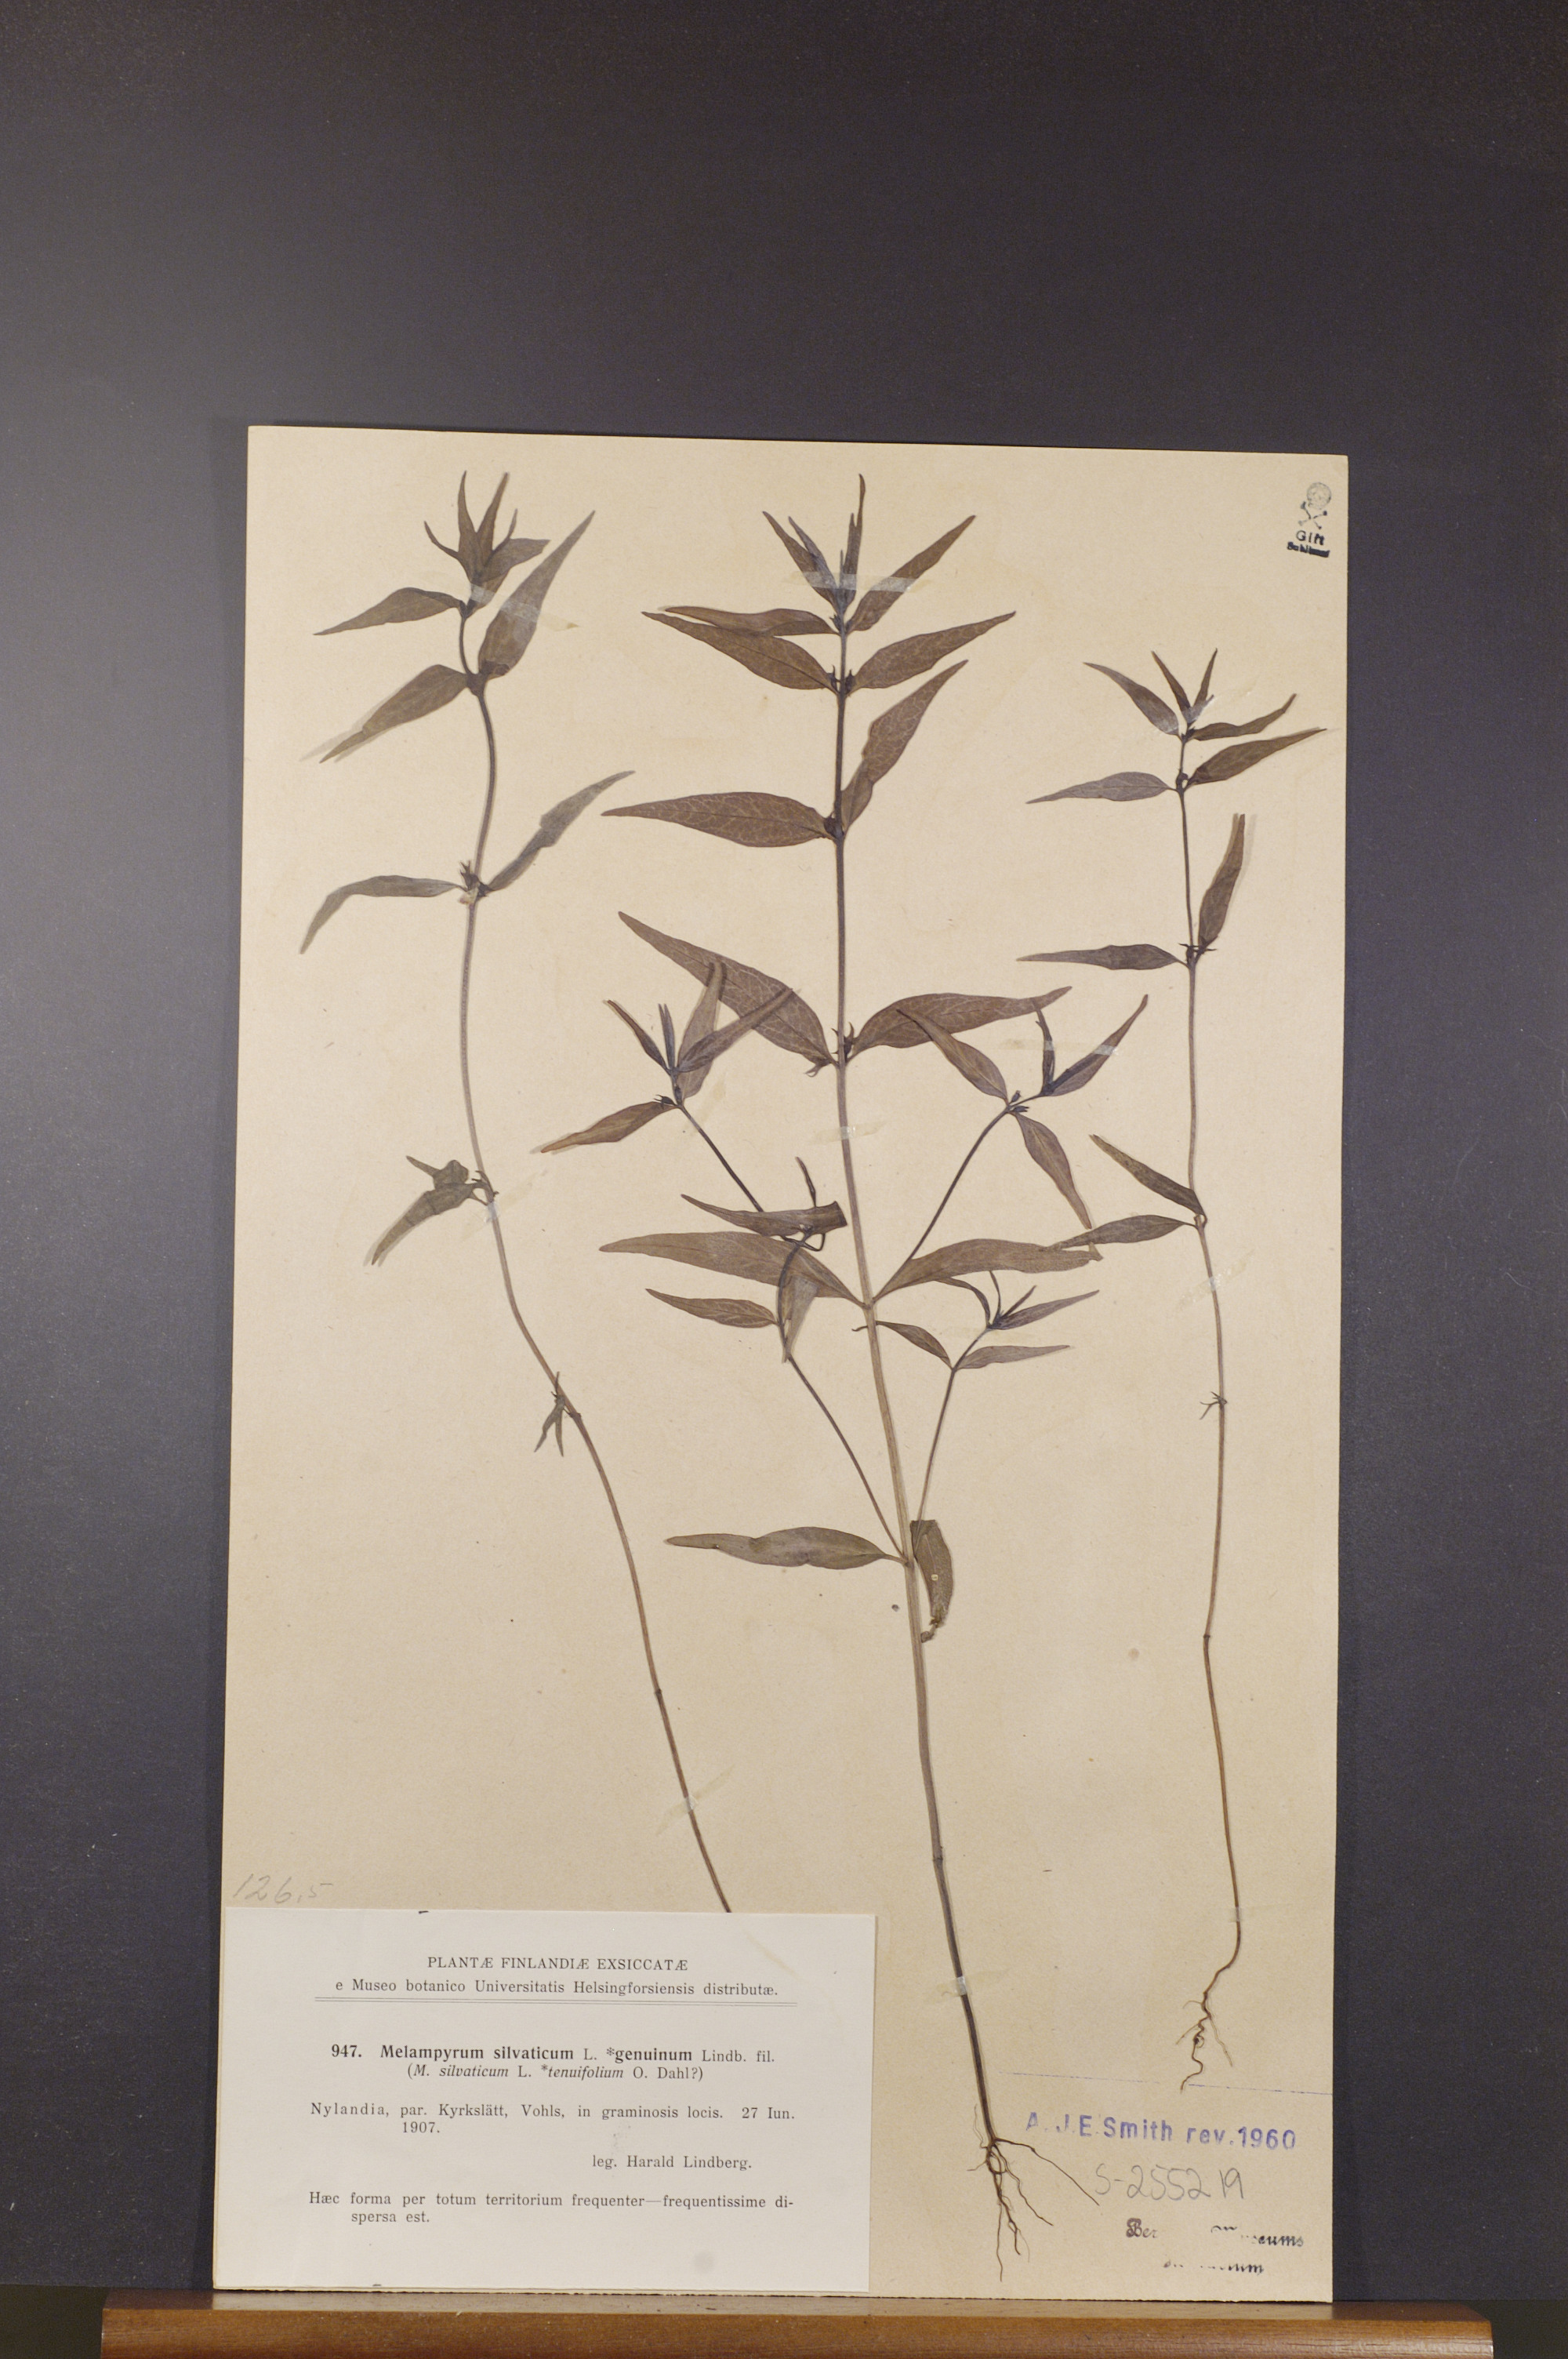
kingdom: Plantae
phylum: Tracheophyta
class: Magnoliopsida
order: Lamiales
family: Orobanchaceae
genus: Melampyrum
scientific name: Melampyrum sylvaticum
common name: Small cow-wheat
